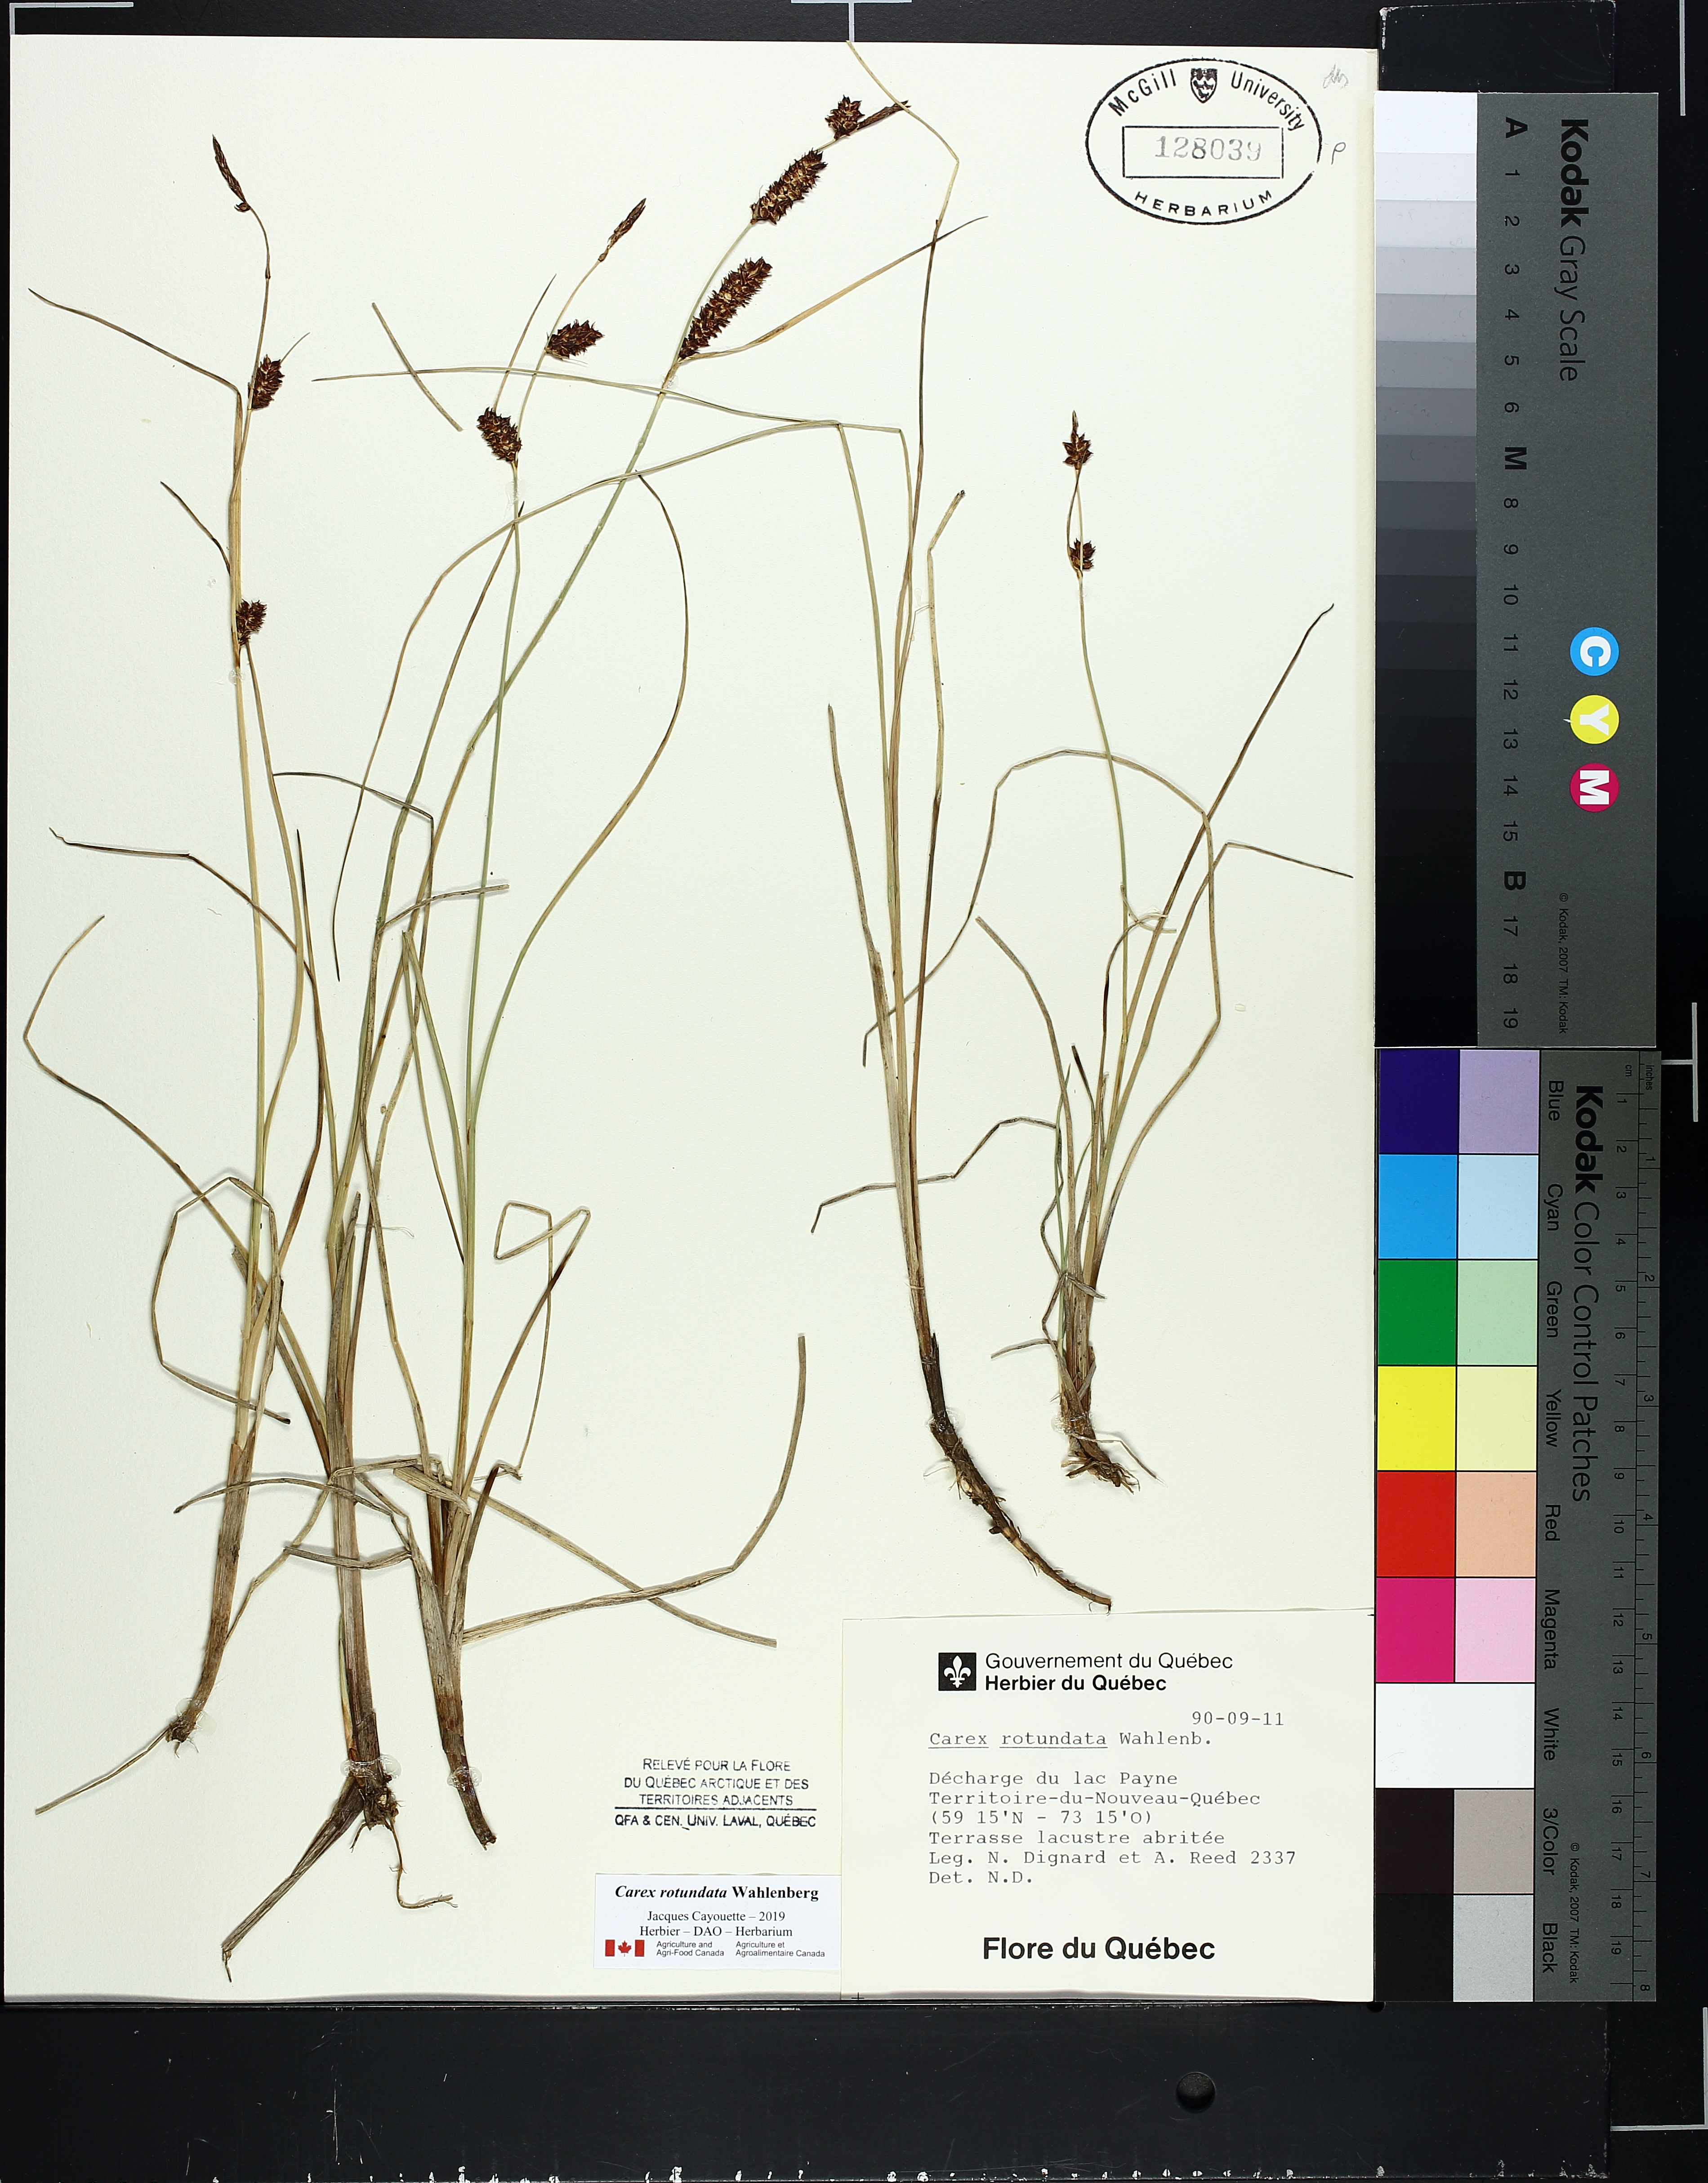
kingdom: Plantae
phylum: Tracheophyta
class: Liliopsida
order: Poales
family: Cyperaceae
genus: Carex
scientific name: Carex rotundata
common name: Round-fruited sedge
